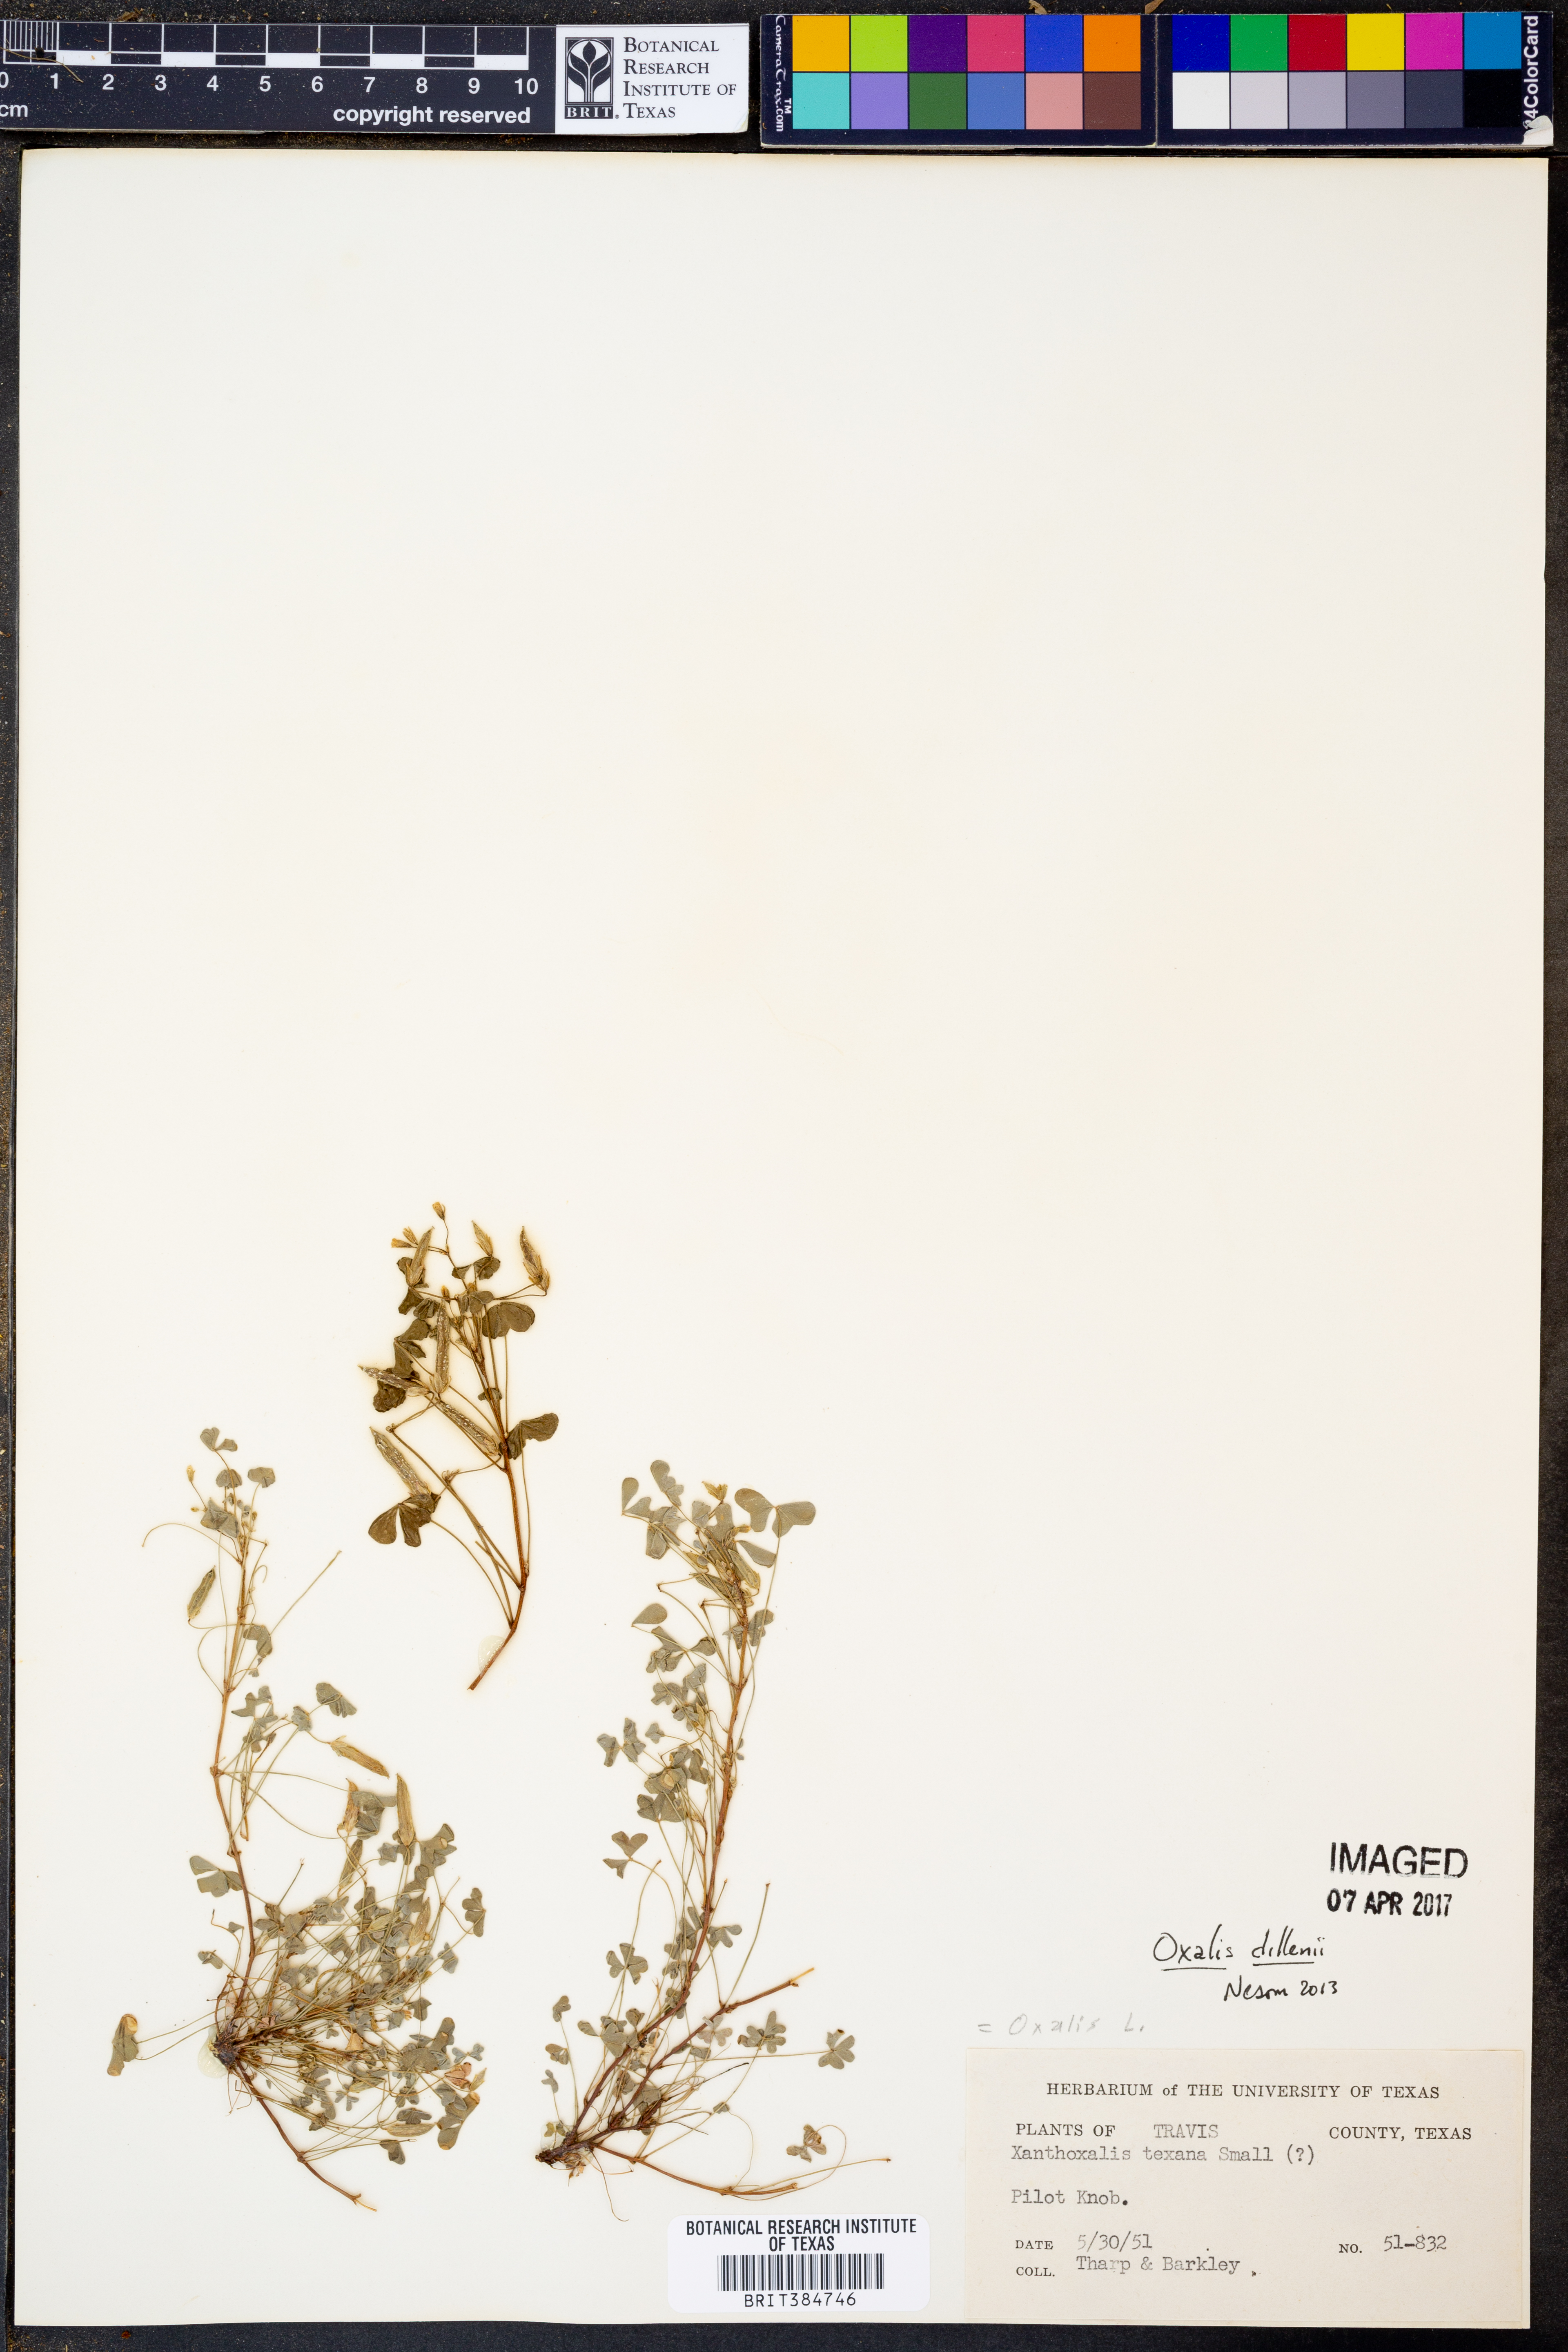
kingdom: Plantae
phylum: Tracheophyta
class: Magnoliopsida
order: Oxalidales
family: Oxalidaceae
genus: Oxalis
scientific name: Oxalis dillenii
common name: Sussex yellow-sorrel
